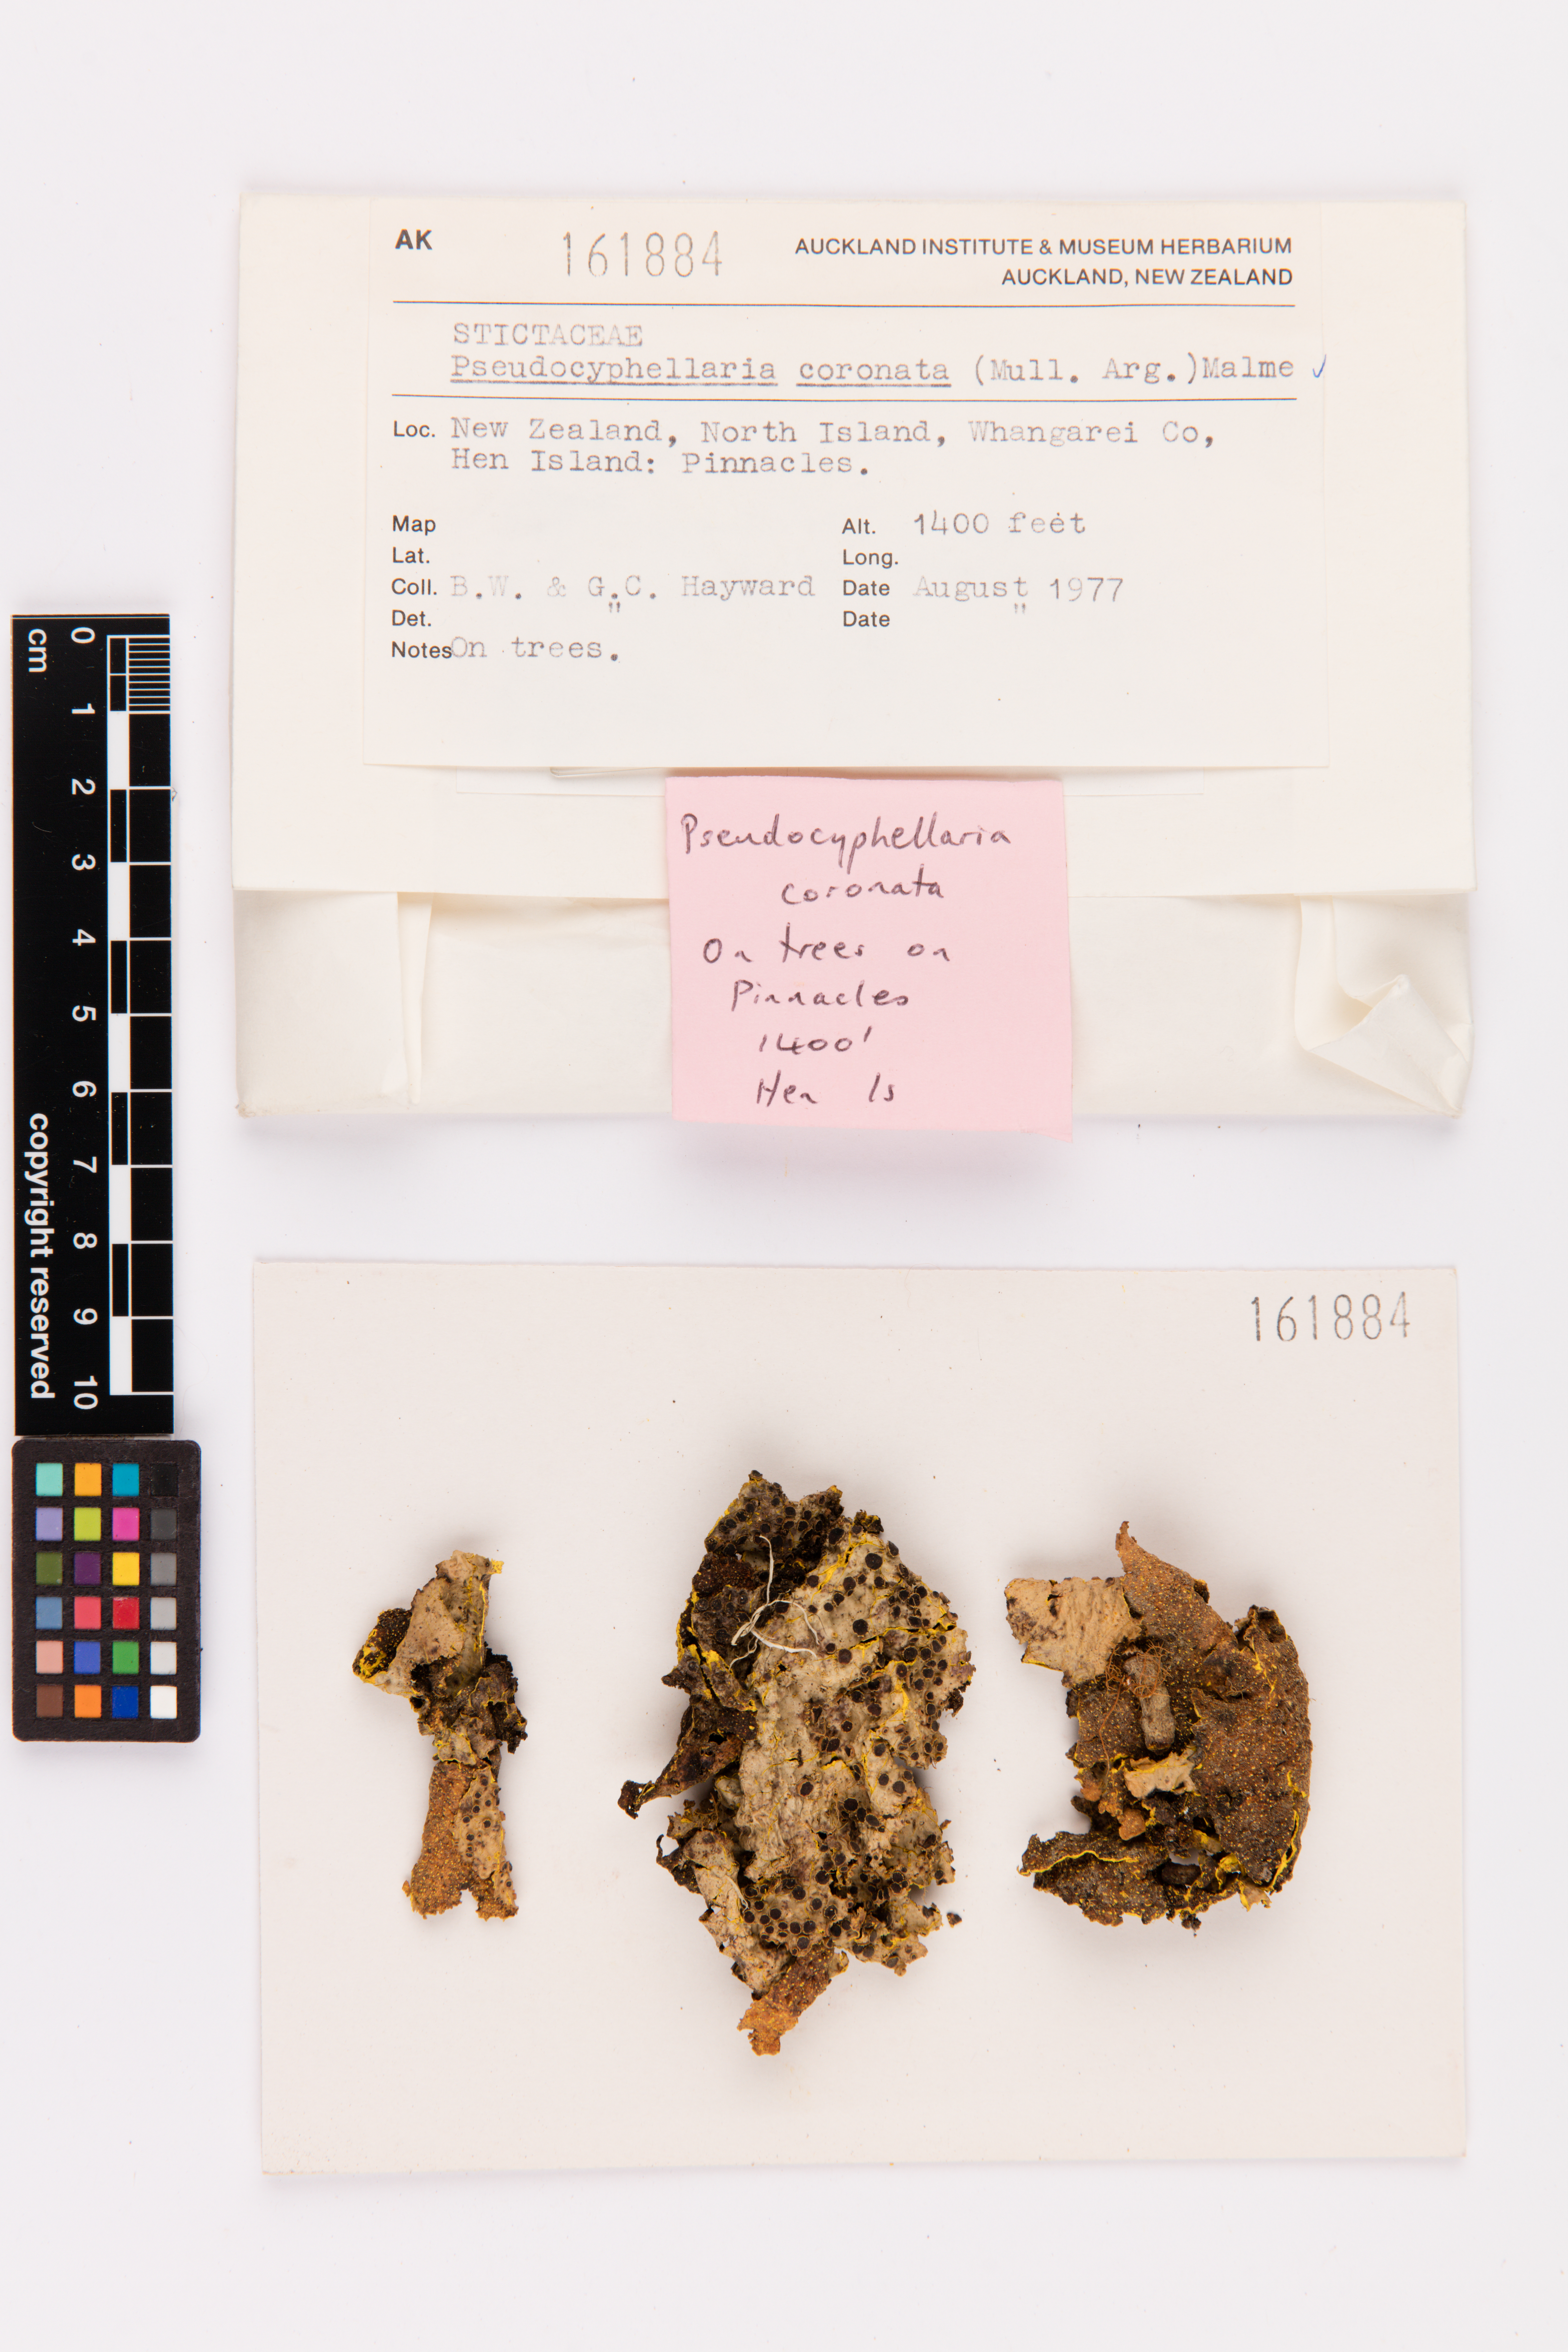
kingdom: Fungi
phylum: Ascomycota
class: Lecanoromycetes
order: Peltigerales
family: Lobariaceae
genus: Yarrumia
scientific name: Yarrumia coronata
